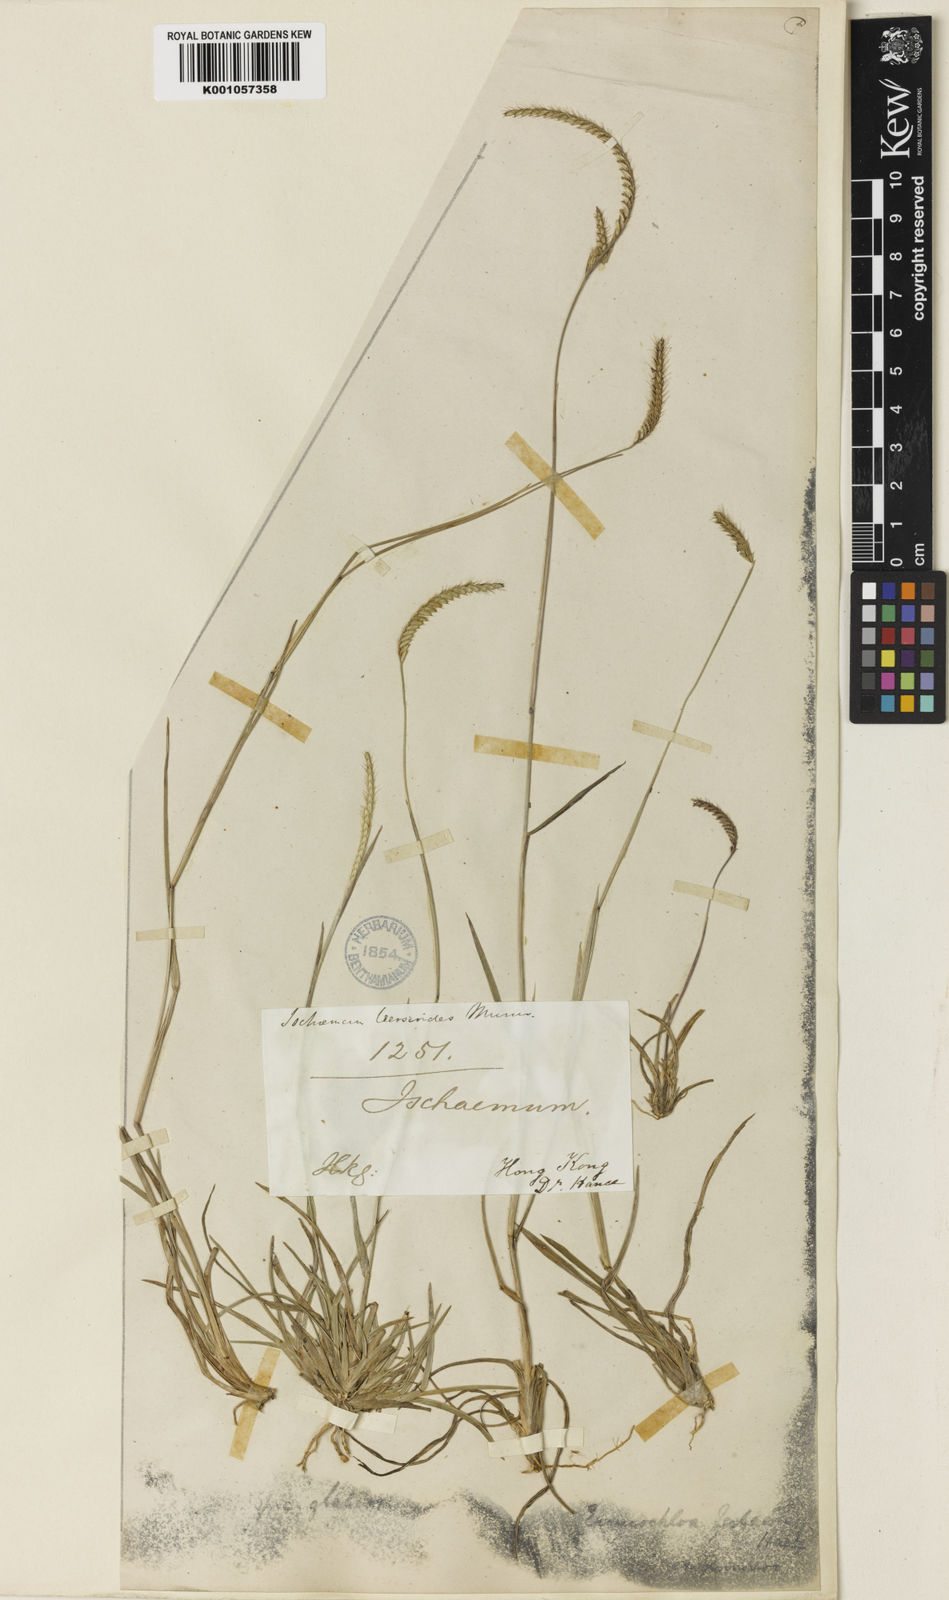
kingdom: Plantae
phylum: Tracheophyta
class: Liliopsida
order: Poales
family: Poaceae
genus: Eremochloa
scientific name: Eremochloa ciliaris
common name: Fringed centipede grass
